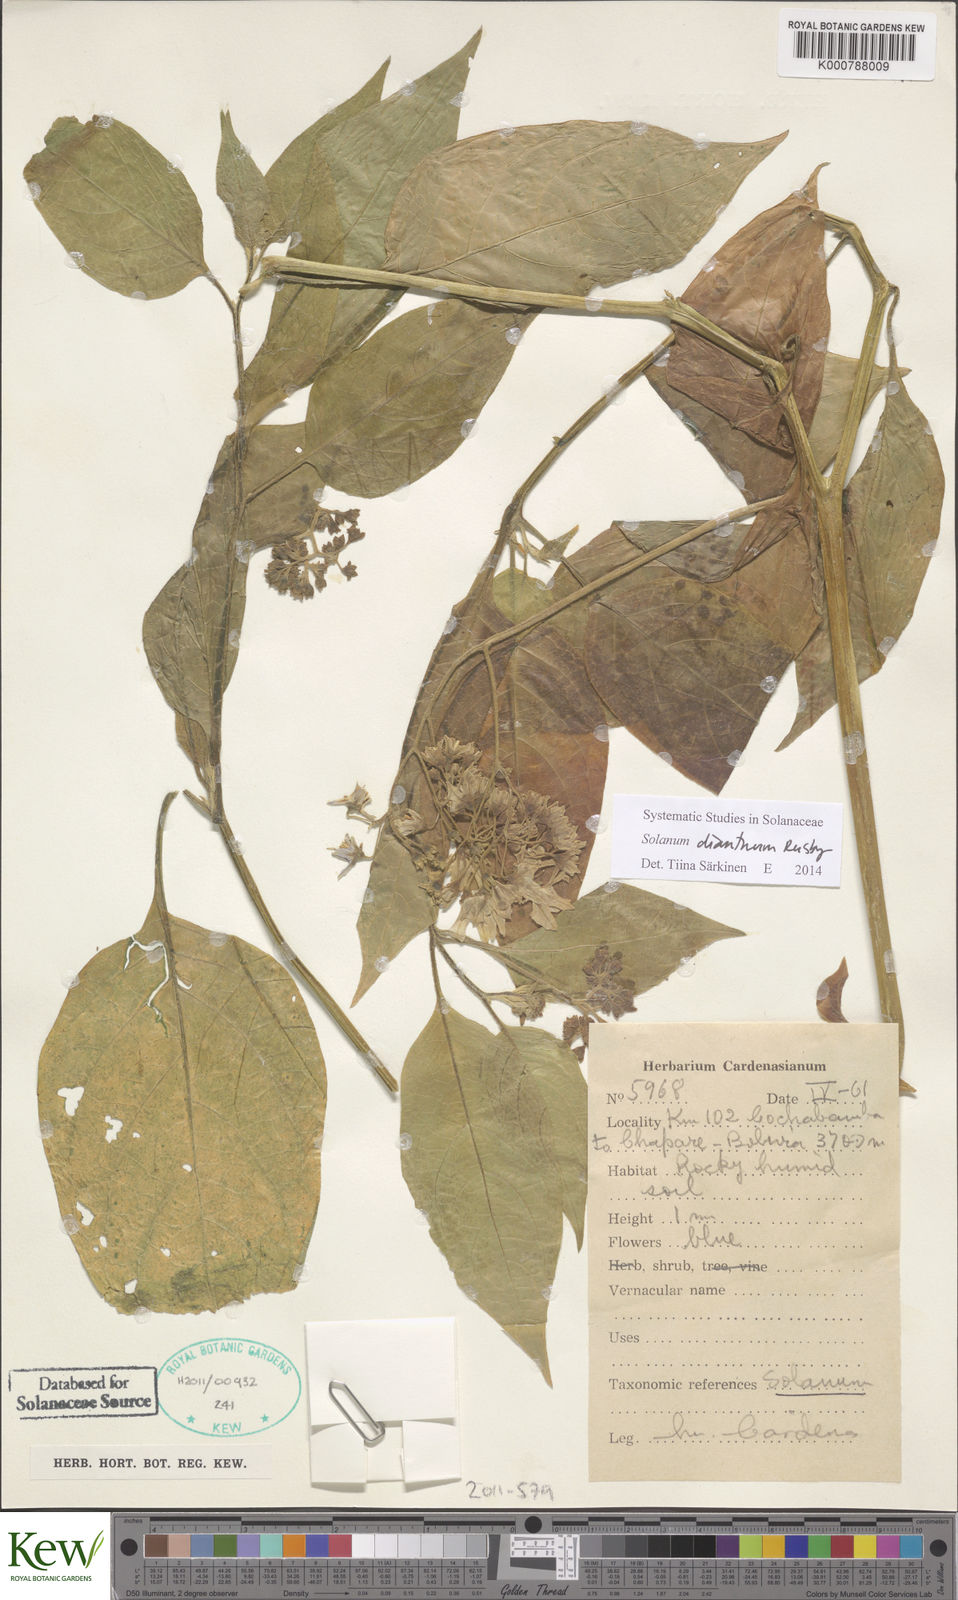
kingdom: Plantae
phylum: Tracheophyta
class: Magnoliopsida
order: Solanales
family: Solanaceae
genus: Solanum
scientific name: Solanum
